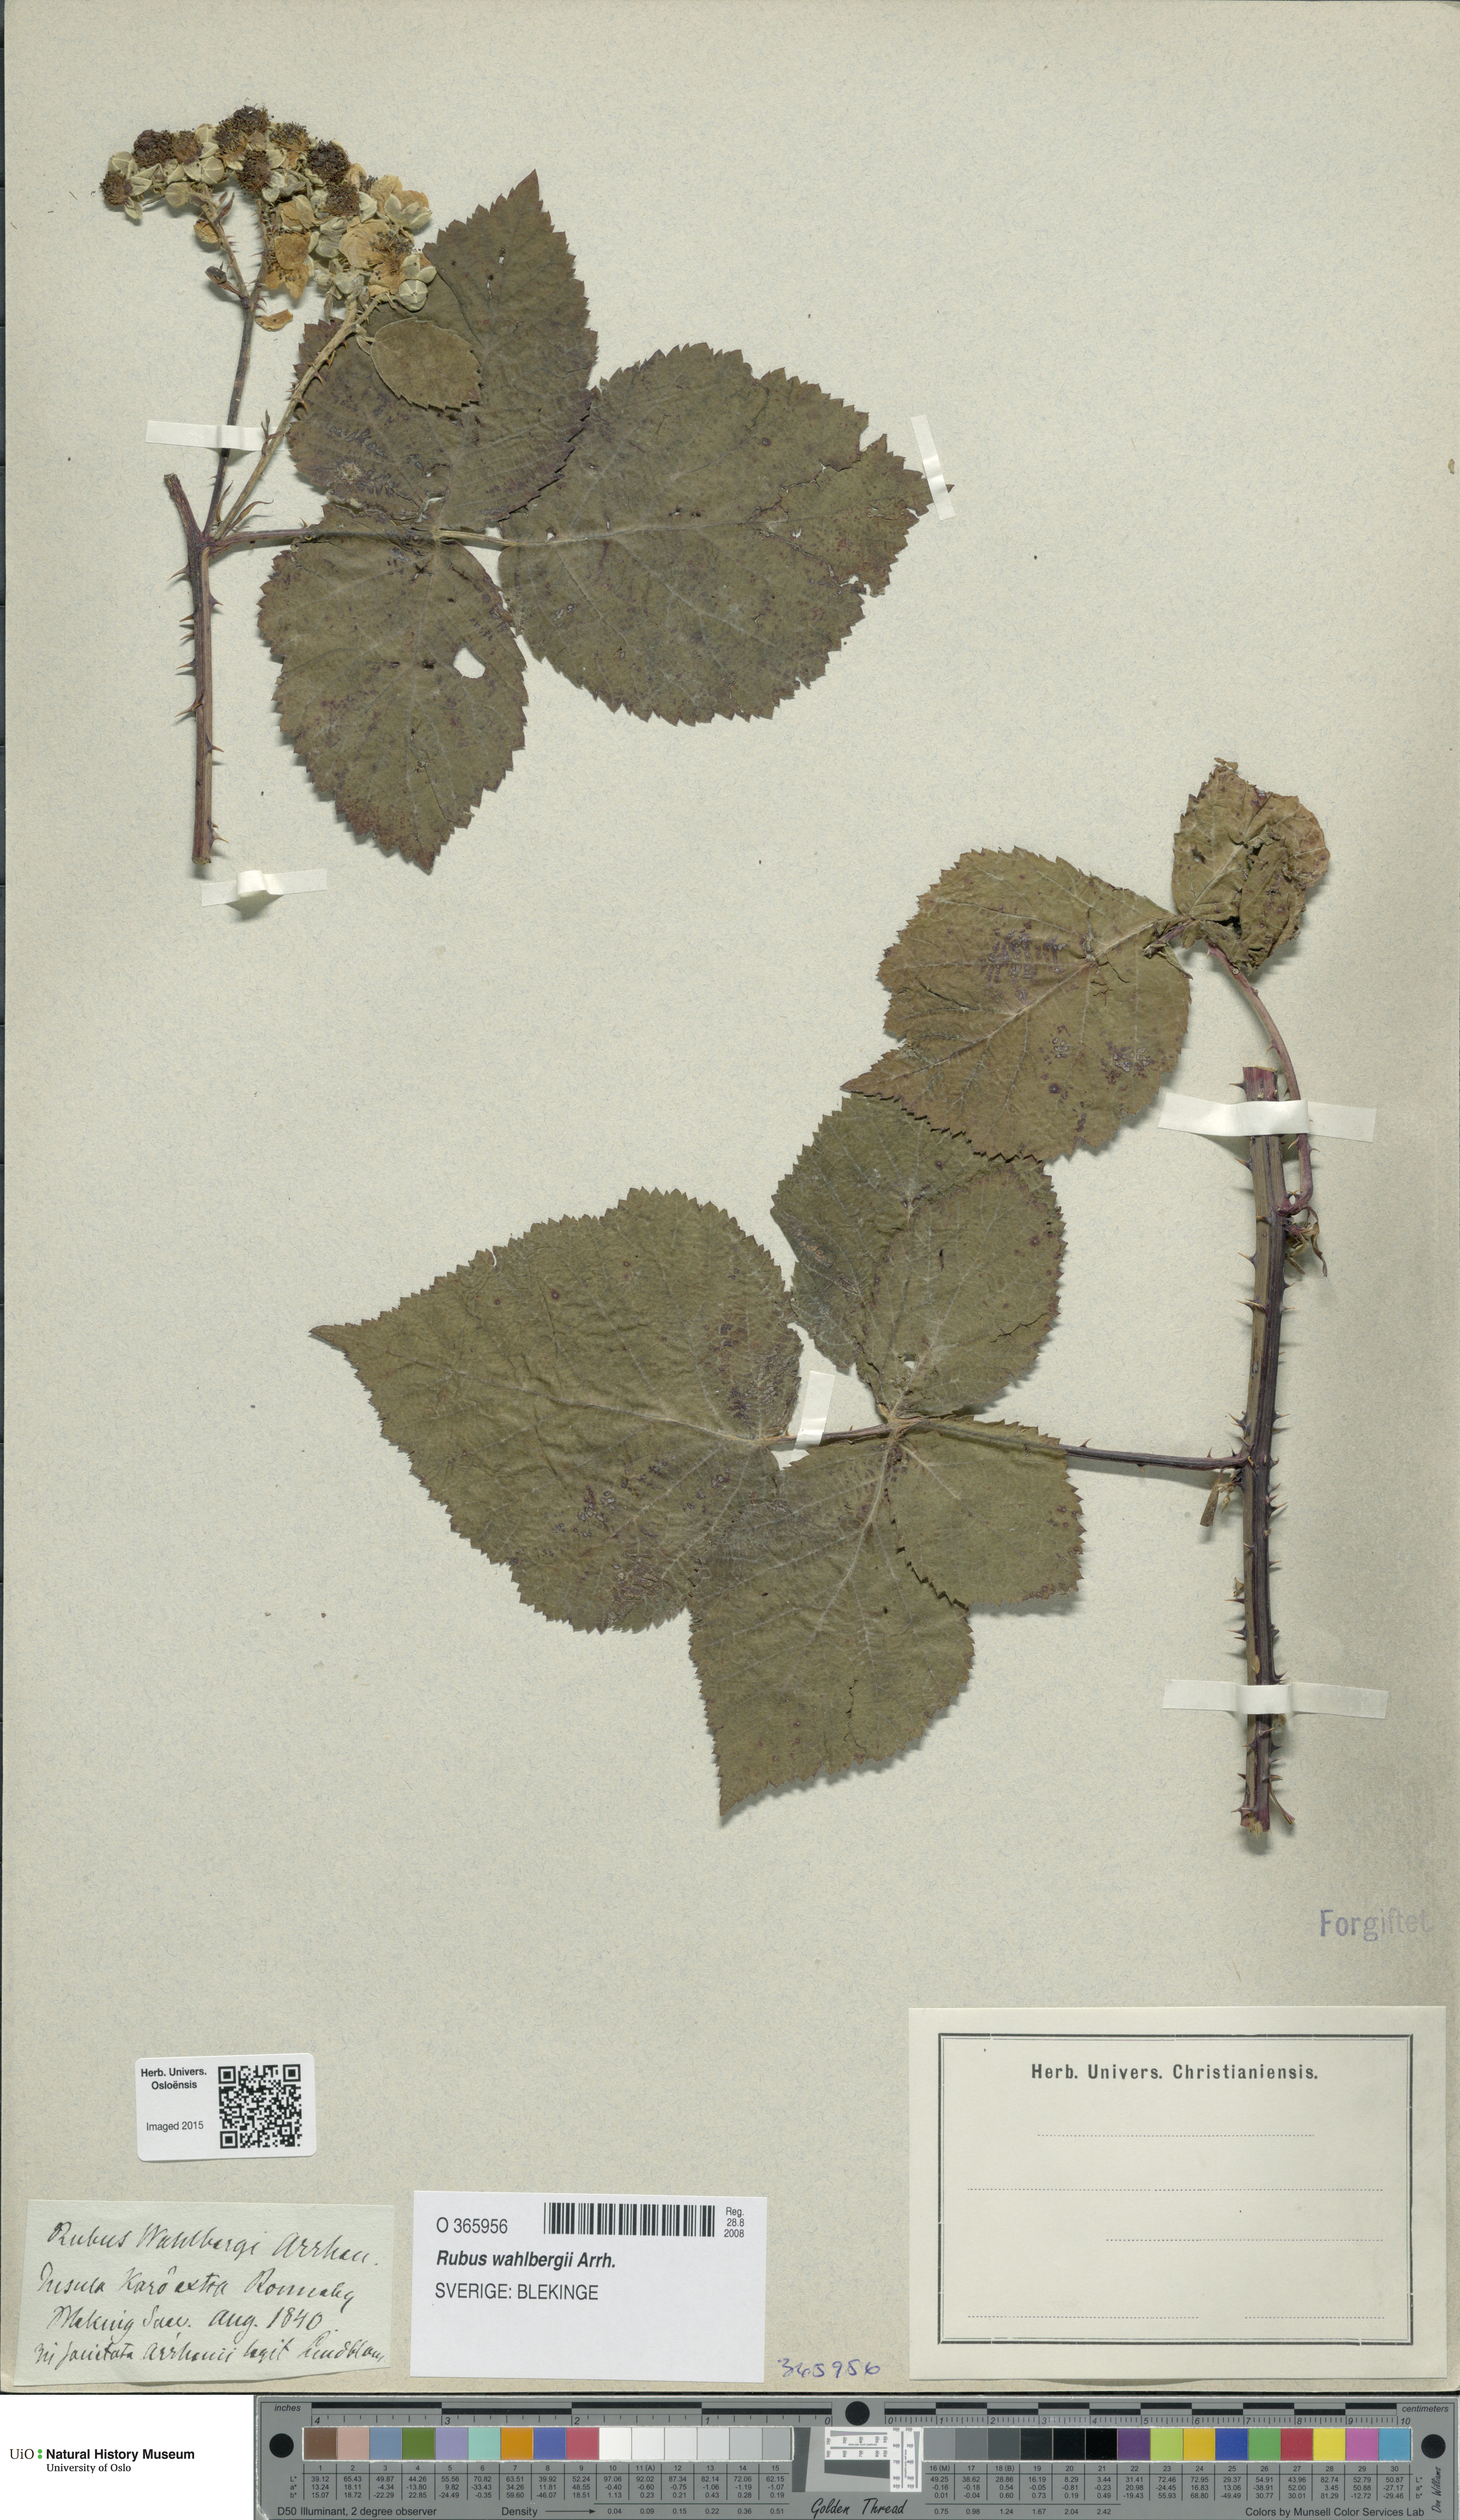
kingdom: Plantae
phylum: Tracheophyta
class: Magnoliopsida
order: Rosales
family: Rosaceae
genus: Rubus
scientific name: Rubus wahlbergii
